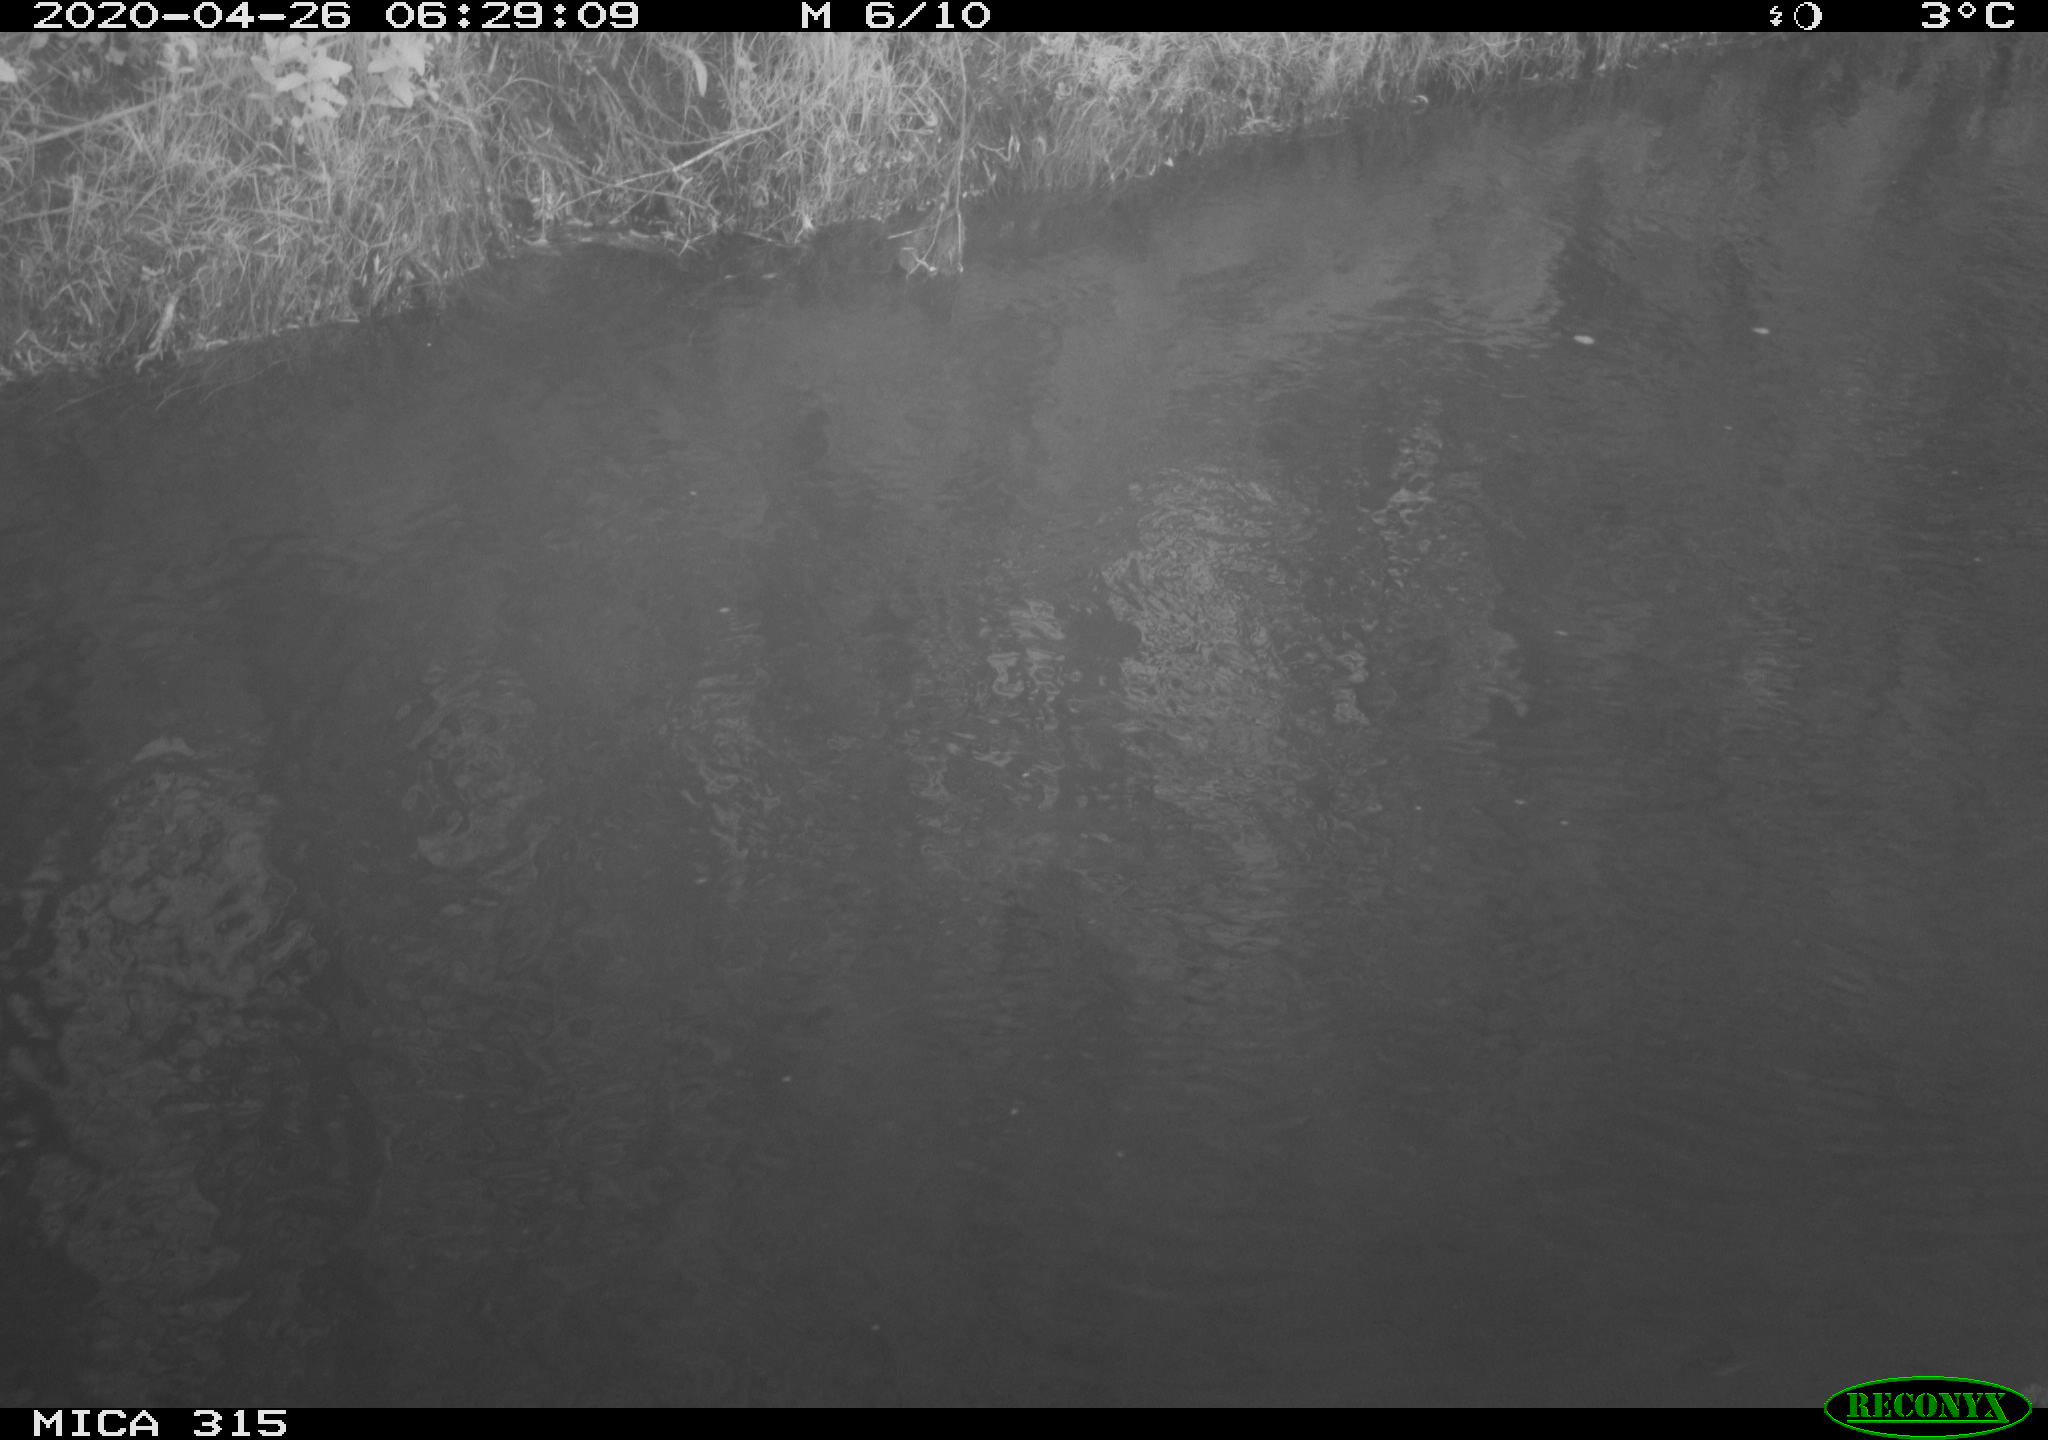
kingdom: Animalia
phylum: Chordata
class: Aves
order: Anseriformes
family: Anatidae
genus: Anas
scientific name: Anas platyrhynchos
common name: Mallard
